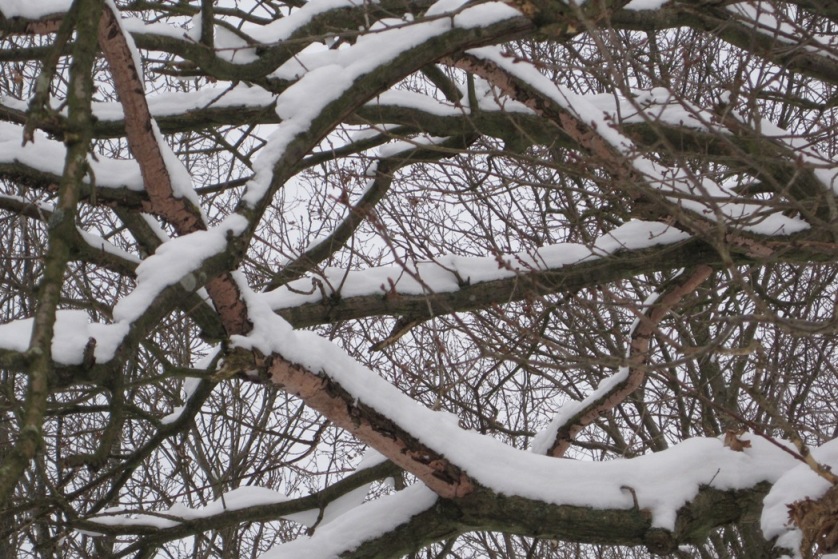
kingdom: Fungi
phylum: Basidiomycota
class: Agaricomycetes
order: Russulales
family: Peniophoraceae
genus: Peniophora
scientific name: Peniophora quercina
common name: ege-voksskind
